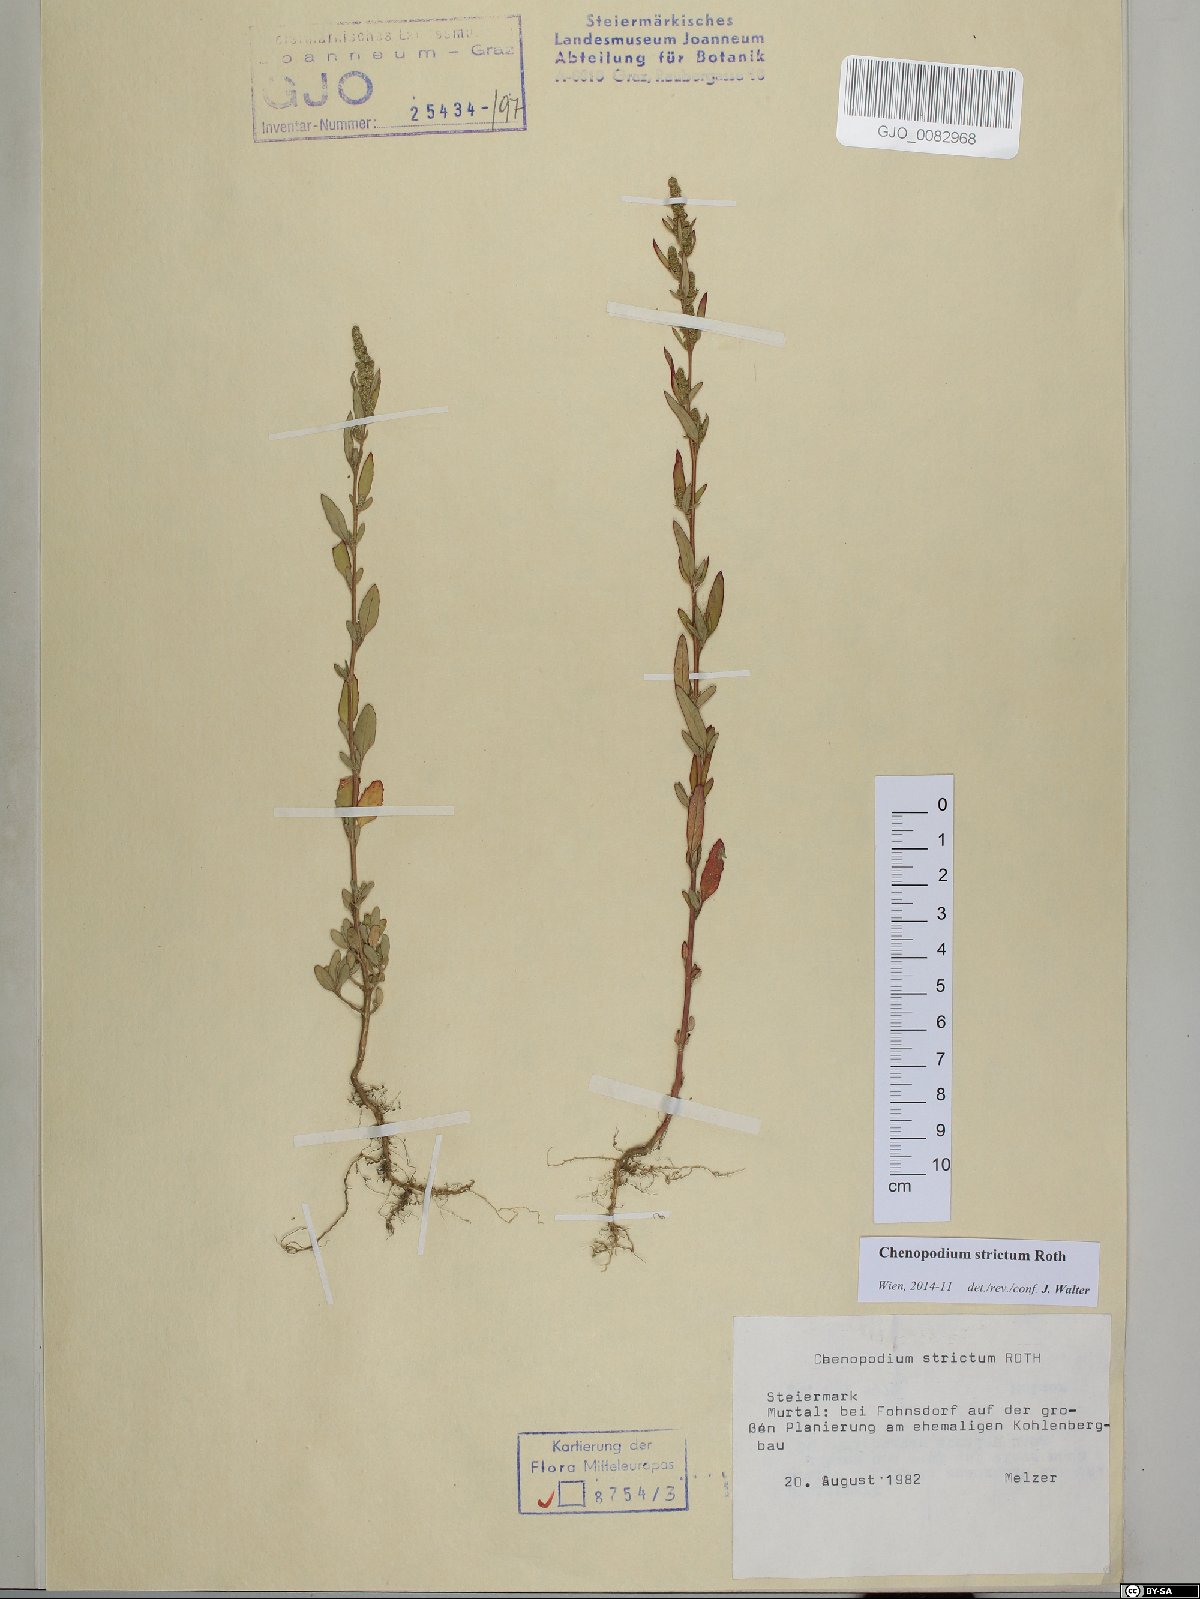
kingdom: Plantae
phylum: Tracheophyta
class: Magnoliopsida
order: Caryophyllales
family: Amaranthaceae
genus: Chenopodium
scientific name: Chenopodium album
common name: Fat-hen
